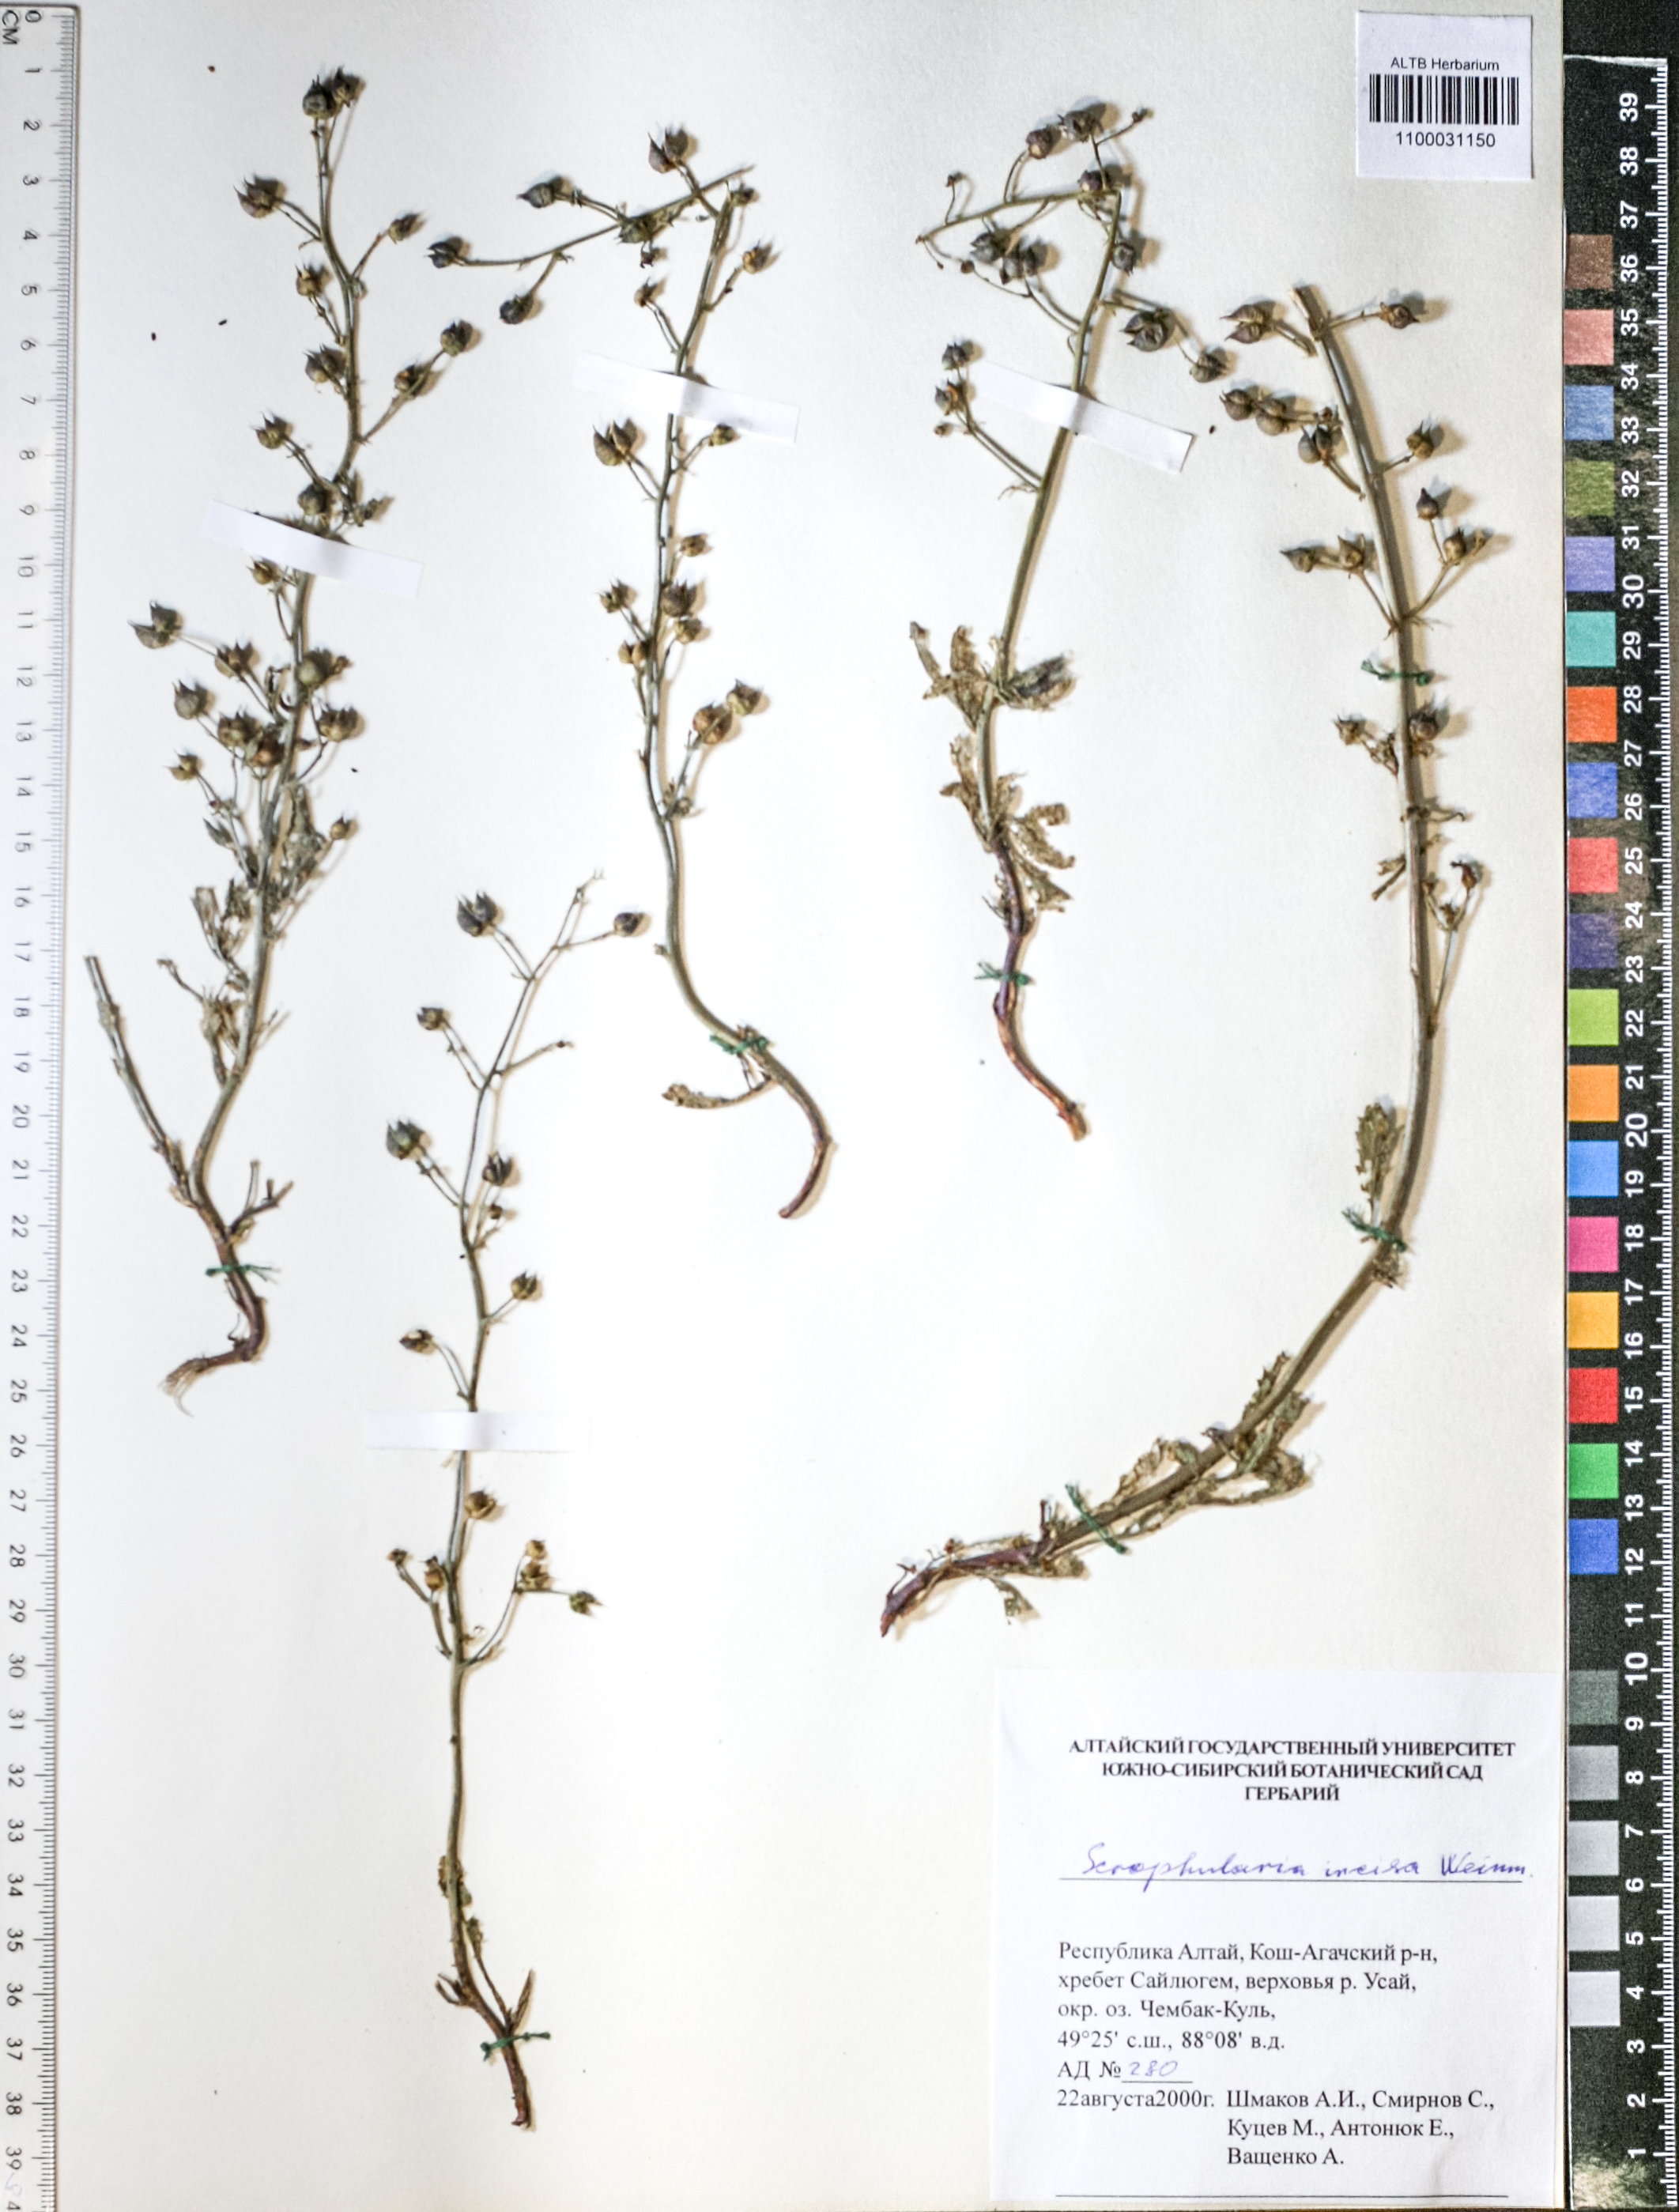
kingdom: Plantae
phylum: Tracheophyta
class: Magnoliopsida
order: Lamiales
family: Scrophulariaceae
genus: Scrophularia
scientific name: Scrophularia incisa
